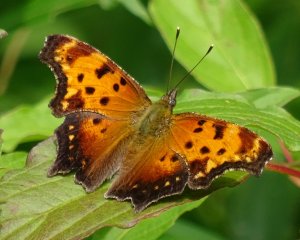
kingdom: Animalia
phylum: Arthropoda
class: Insecta
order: Lepidoptera
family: Nymphalidae
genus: Polygonia
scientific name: Polygonia progne
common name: Gray Comma
